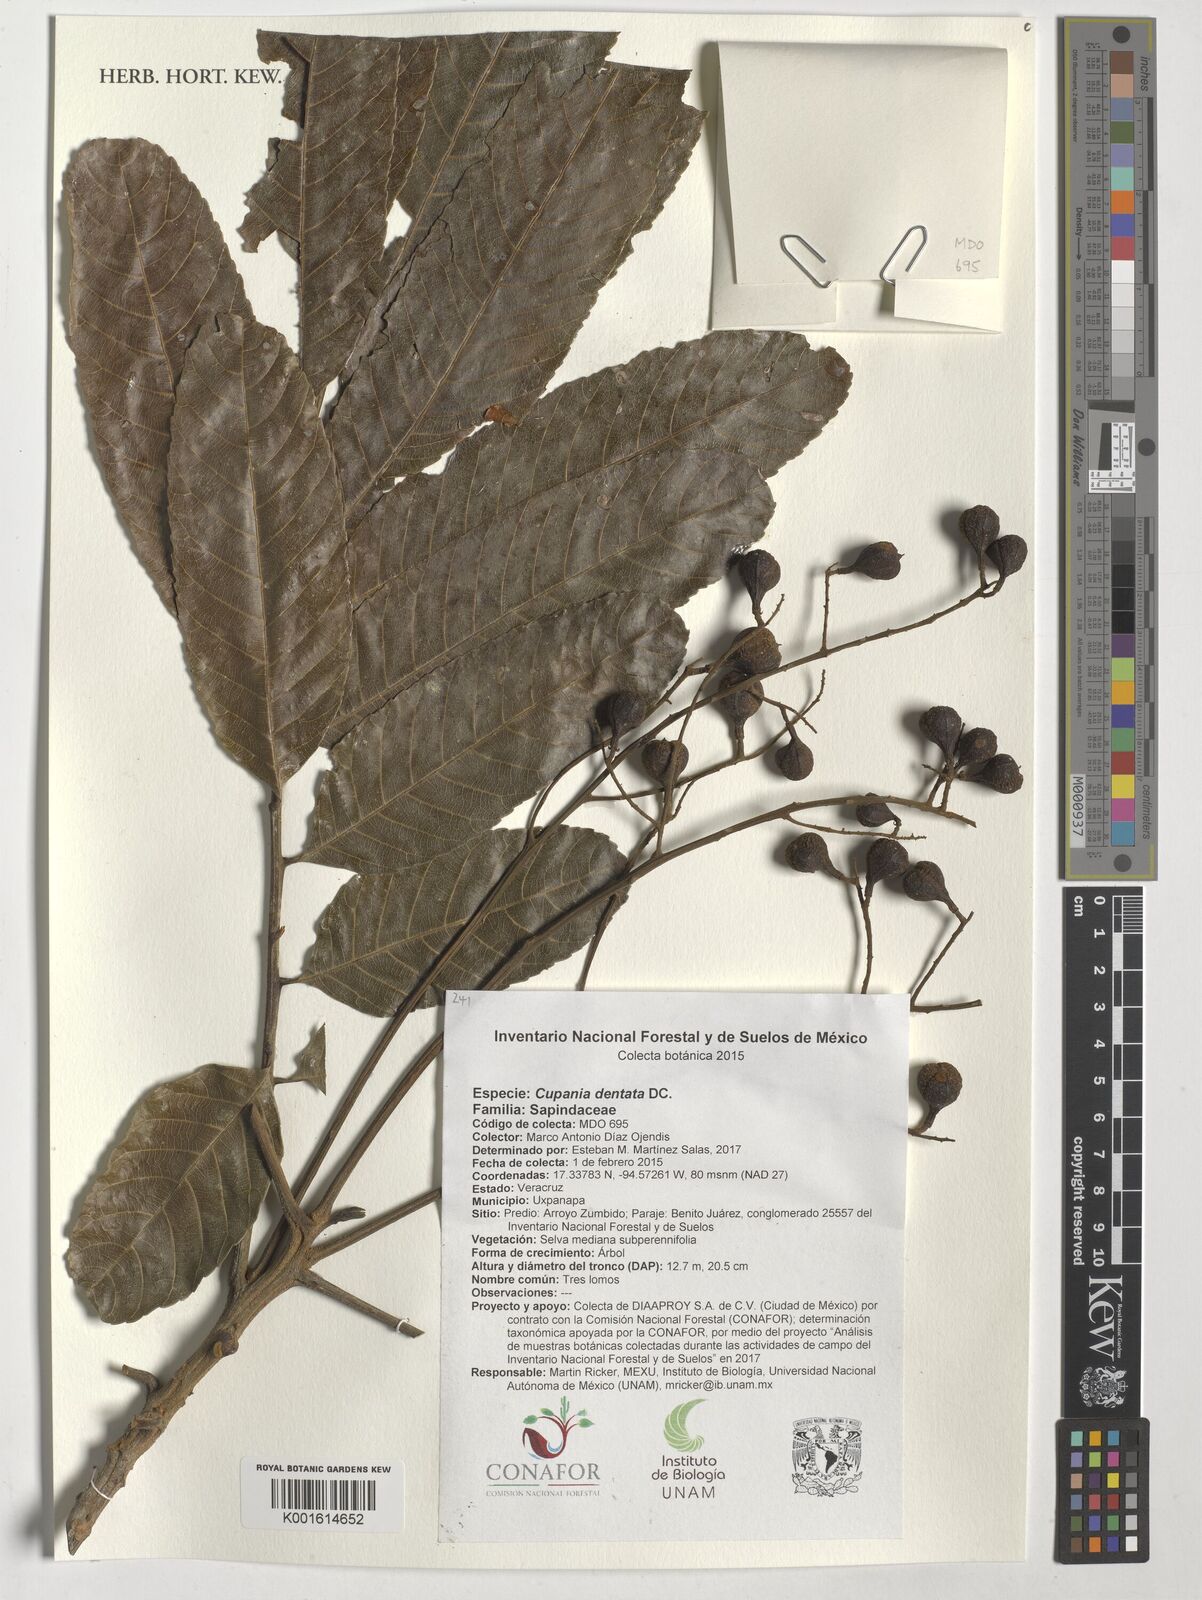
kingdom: Plantae
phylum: Tracheophyta
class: Magnoliopsida
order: Sapindales
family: Sapindaceae
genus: Cupania
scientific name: Cupania dentata
